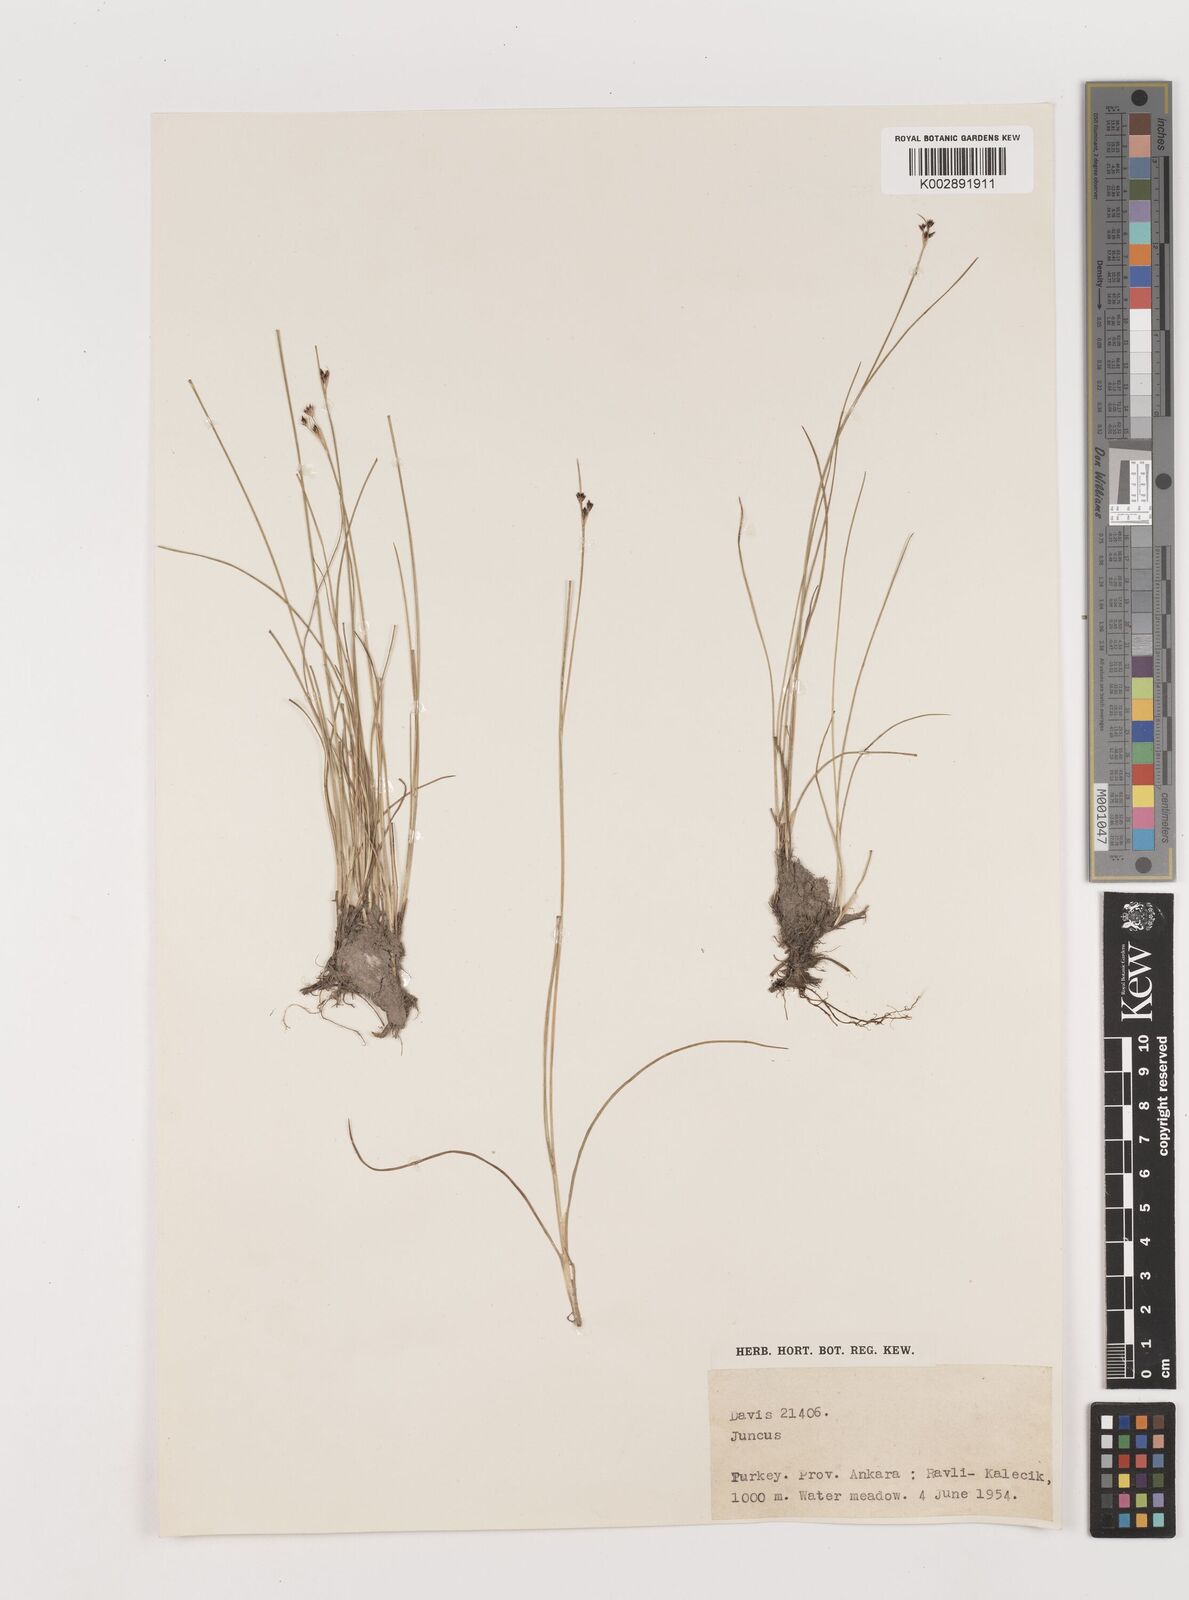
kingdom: Plantae
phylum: Tracheophyta
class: Liliopsida
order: Poales
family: Juncaceae
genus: Juncus
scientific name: Juncus
